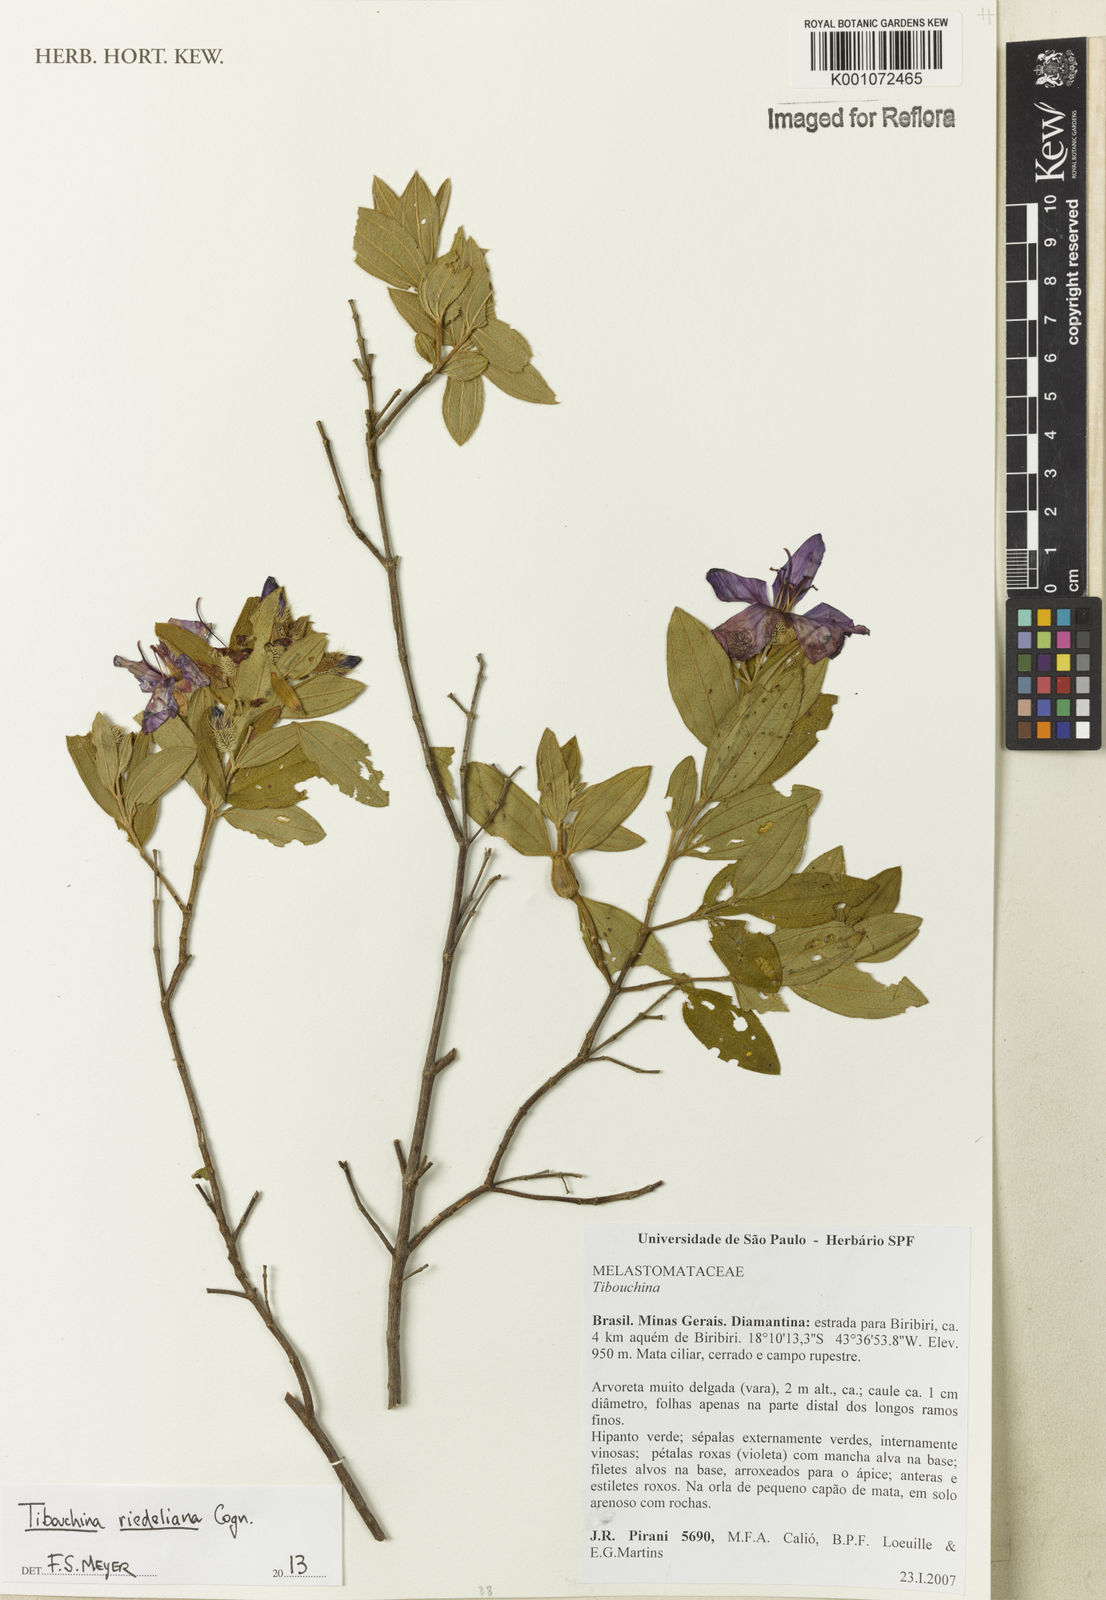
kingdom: Plantae
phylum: Tracheophyta
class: Magnoliopsida
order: Myrtales
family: Melastomataceae
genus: Pleroma
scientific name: Pleroma riedelianum
